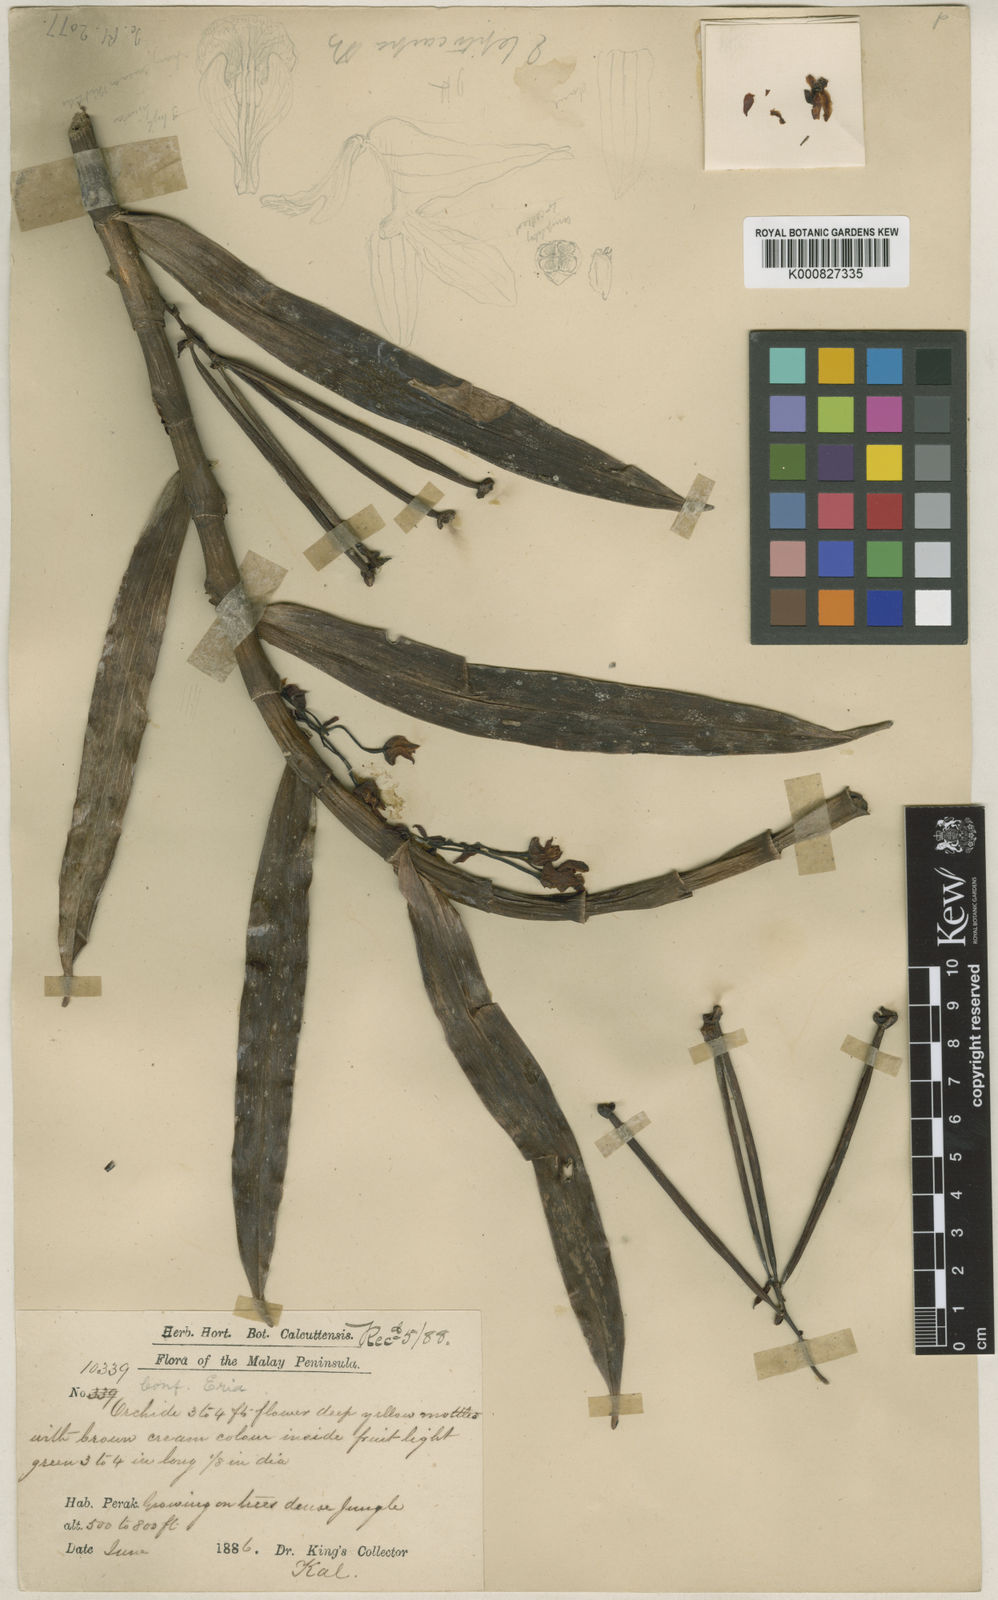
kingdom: Plantae
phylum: Tracheophyta
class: Liliopsida
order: Asparagales
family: Orchidaceae
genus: Cylindrolobus
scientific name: Cylindrolobus leptocarpus
